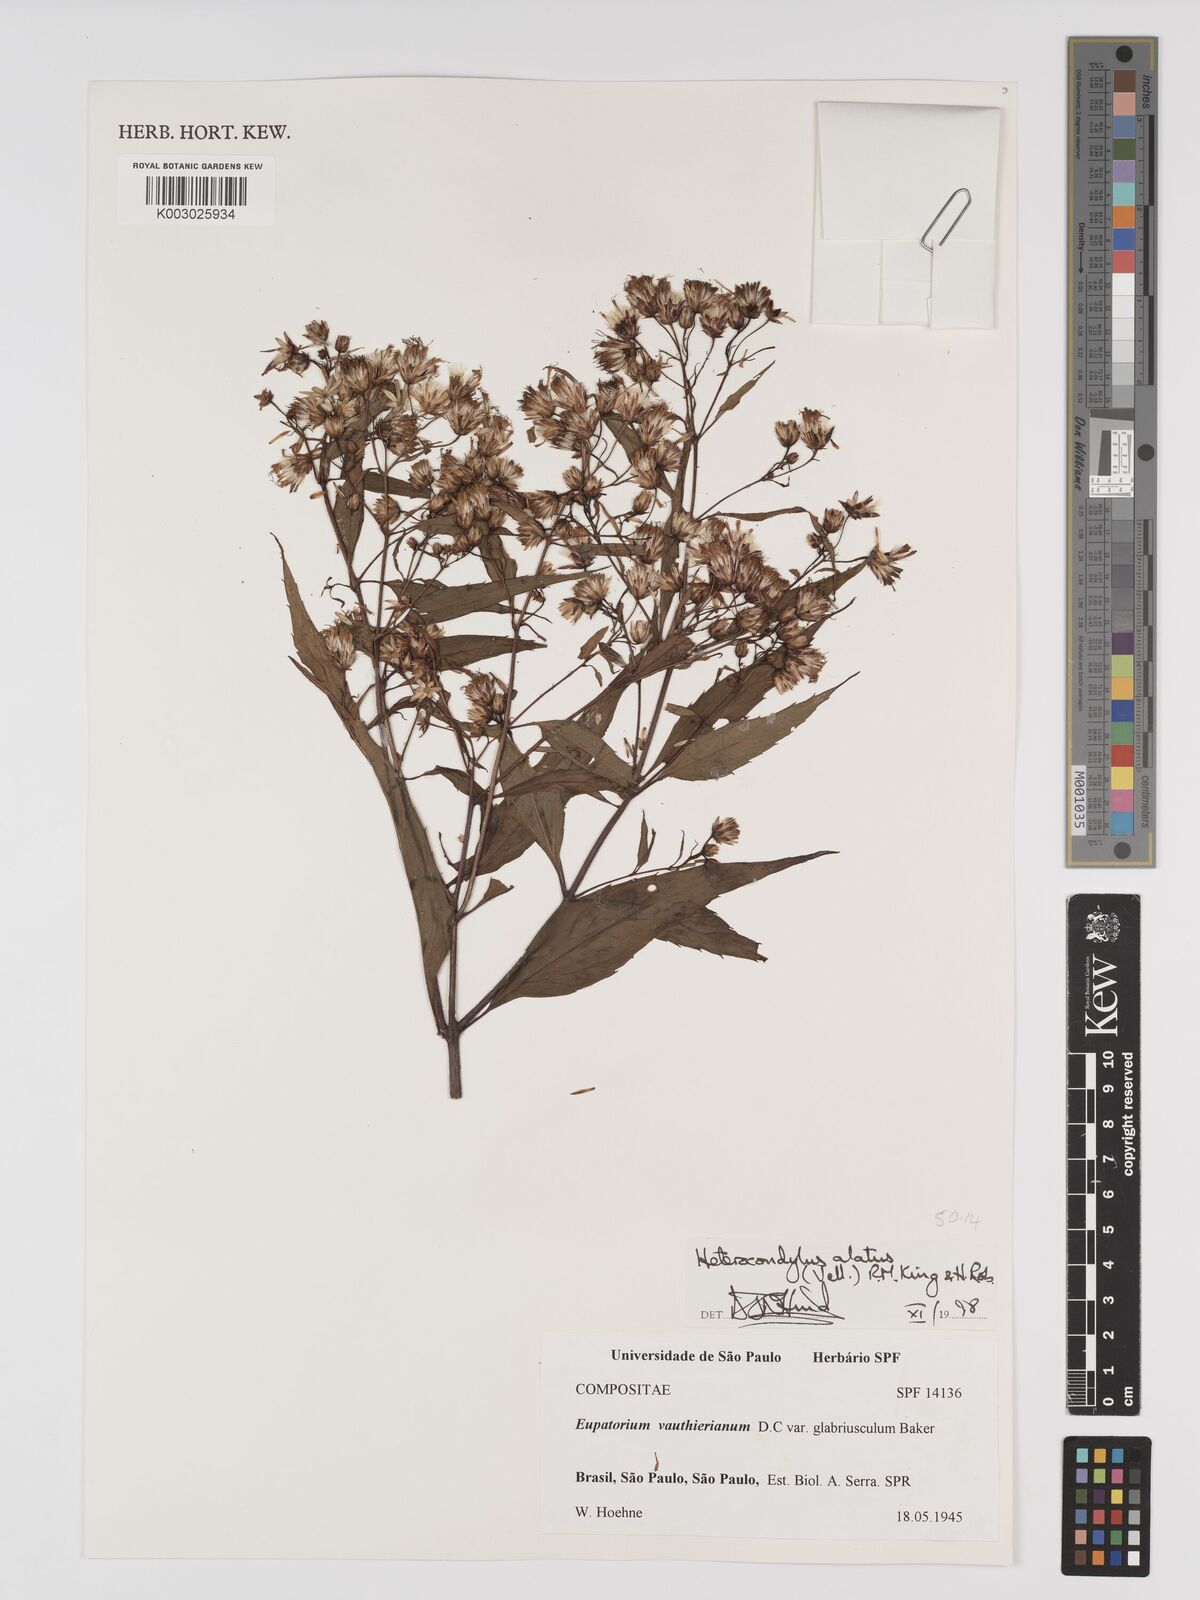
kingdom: Plantae
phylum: Tracheophyta
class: Magnoliopsida
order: Asterales
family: Asteraceae
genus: Heterocondylus
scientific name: Heterocondylus alatus
